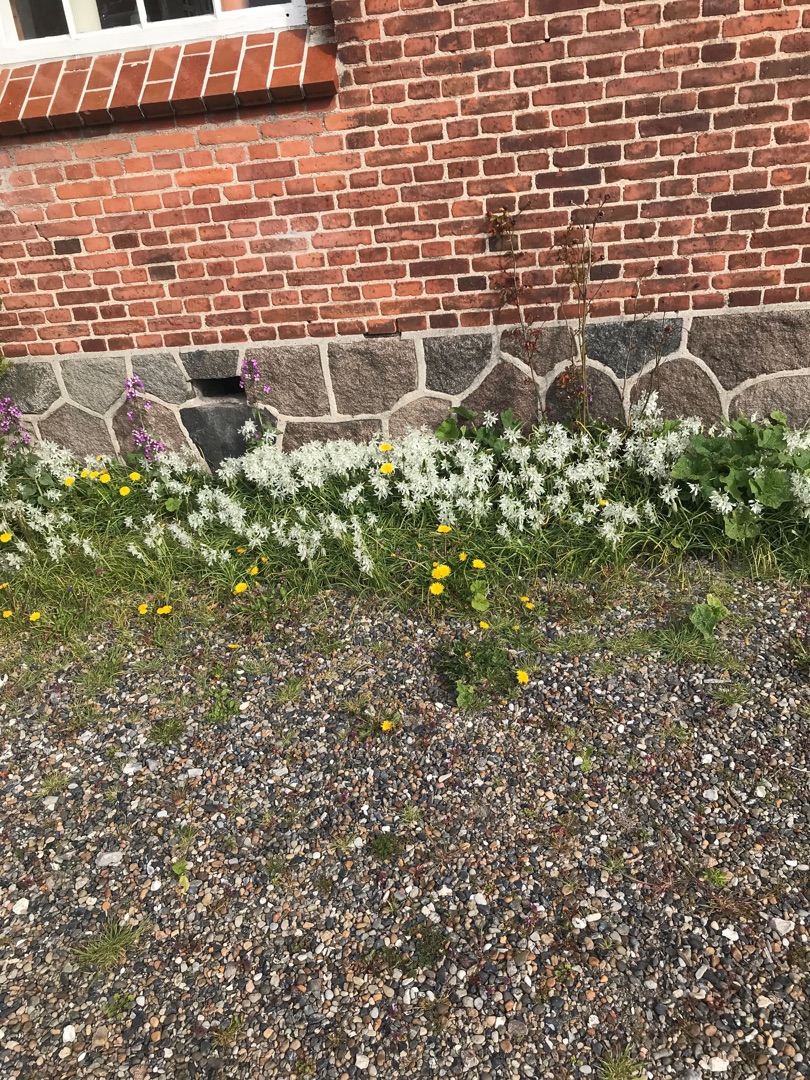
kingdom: Plantae
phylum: Tracheophyta
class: Liliopsida
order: Asparagales
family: Asparagaceae
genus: Ornithogalum
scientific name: Ornithogalum nutans
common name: Nikkende fuglemælk
